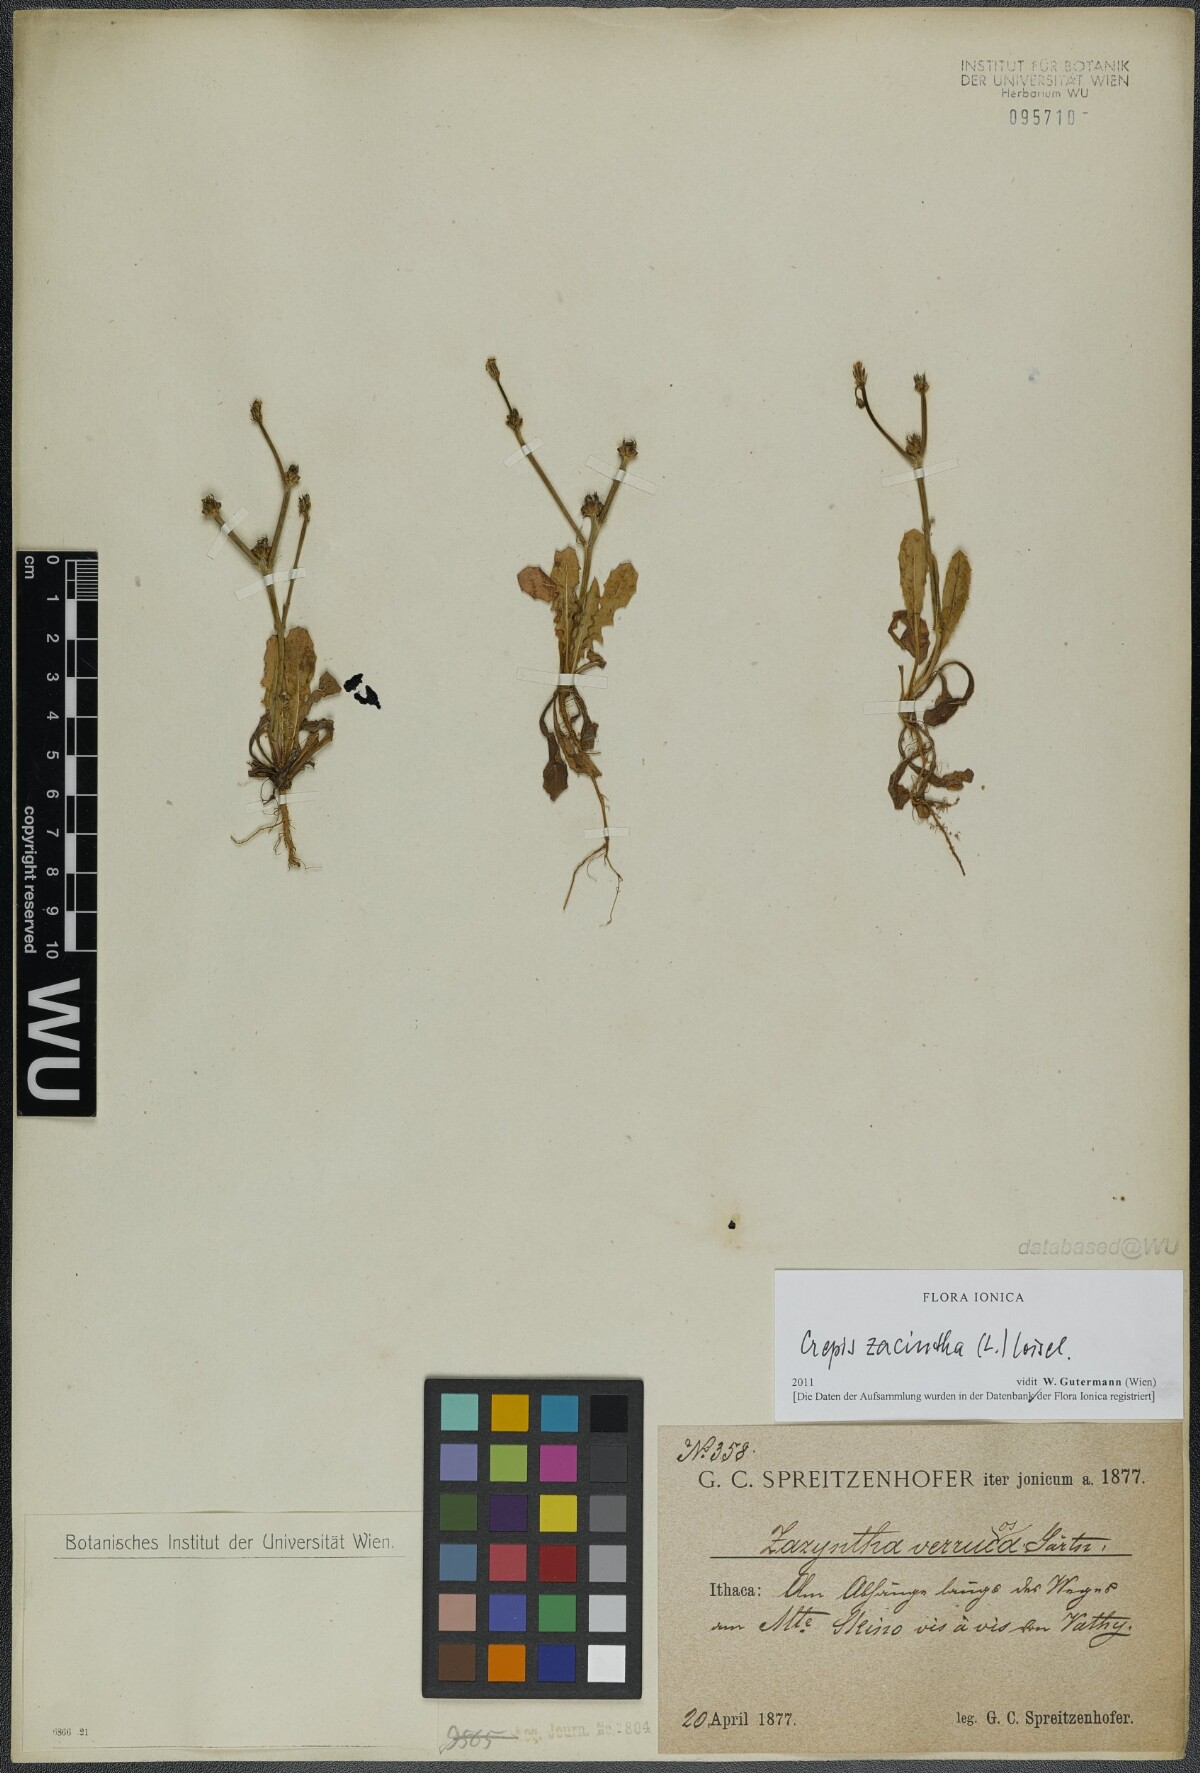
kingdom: Plantae
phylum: Tracheophyta
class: Magnoliopsida
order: Asterales
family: Asteraceae
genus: Crepis
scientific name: Crepis zacintha
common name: Striped hawksbeard
